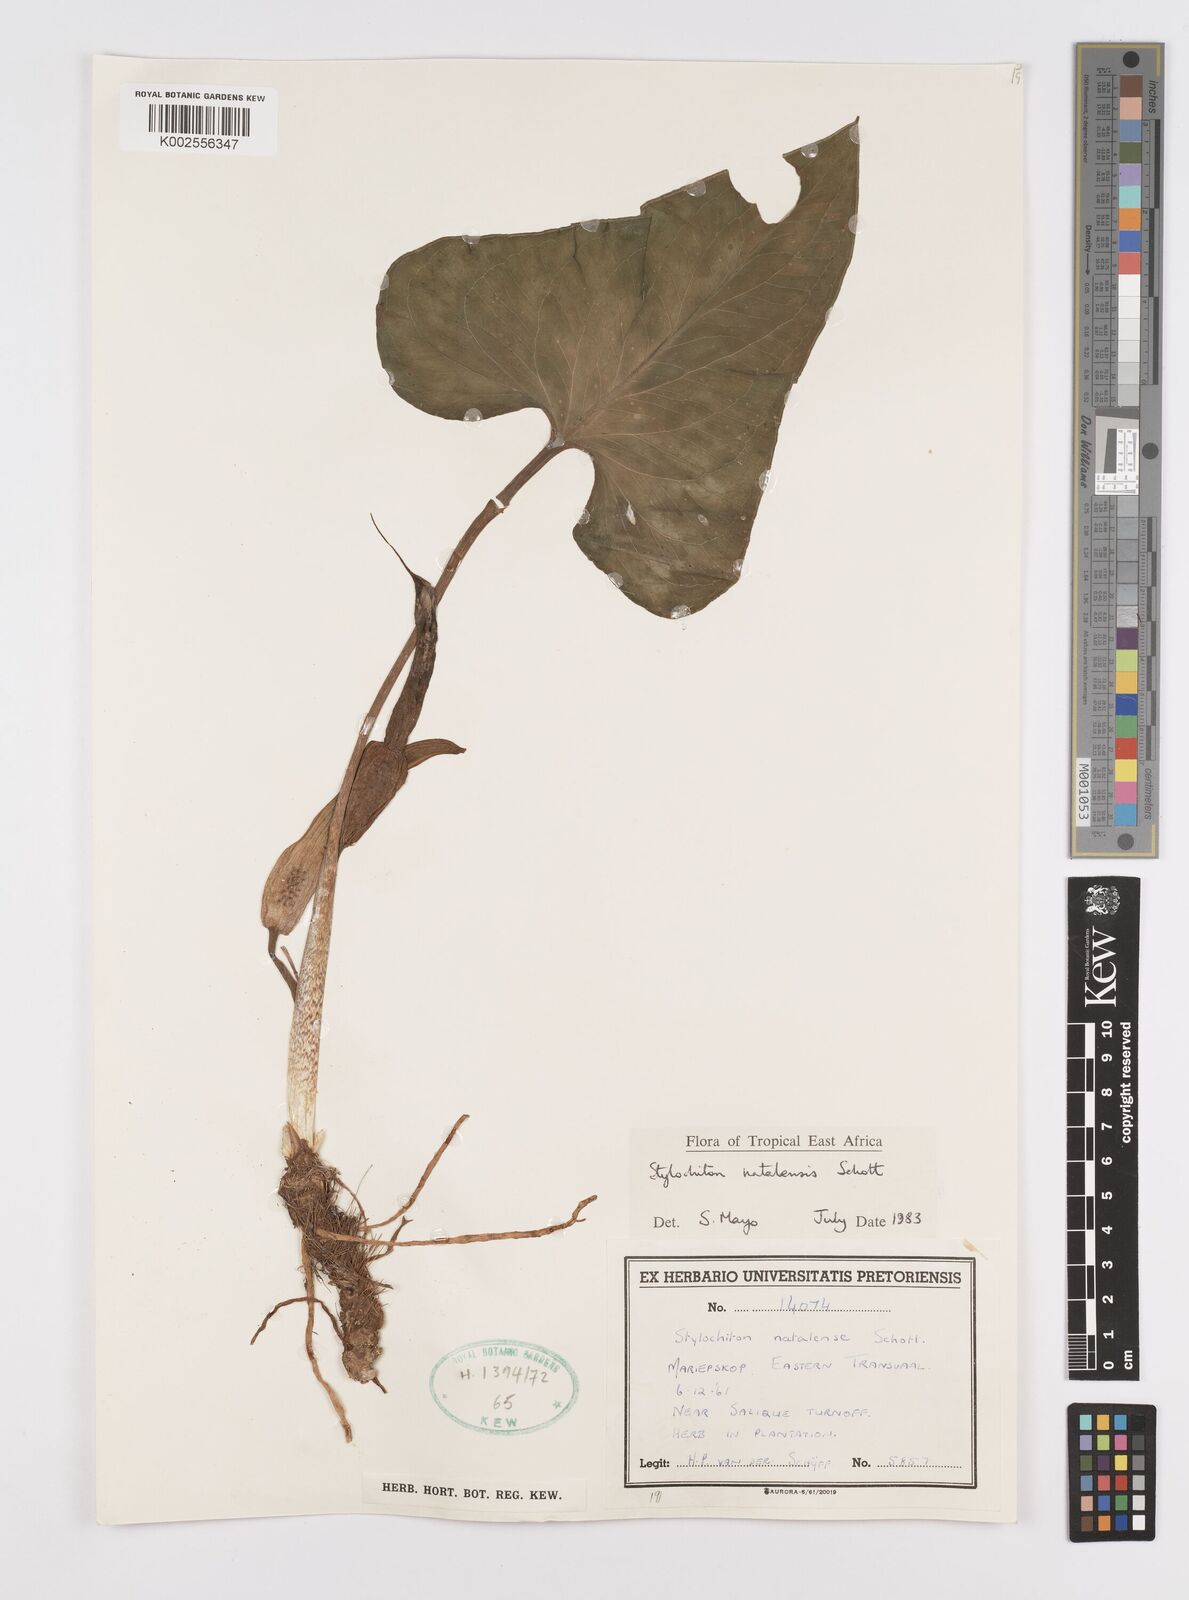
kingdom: Plantae
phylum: Tracheophyta
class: Liliopsida
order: Alismatales
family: Araceae
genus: Stylochaeton
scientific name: Stylochaeton natalense
